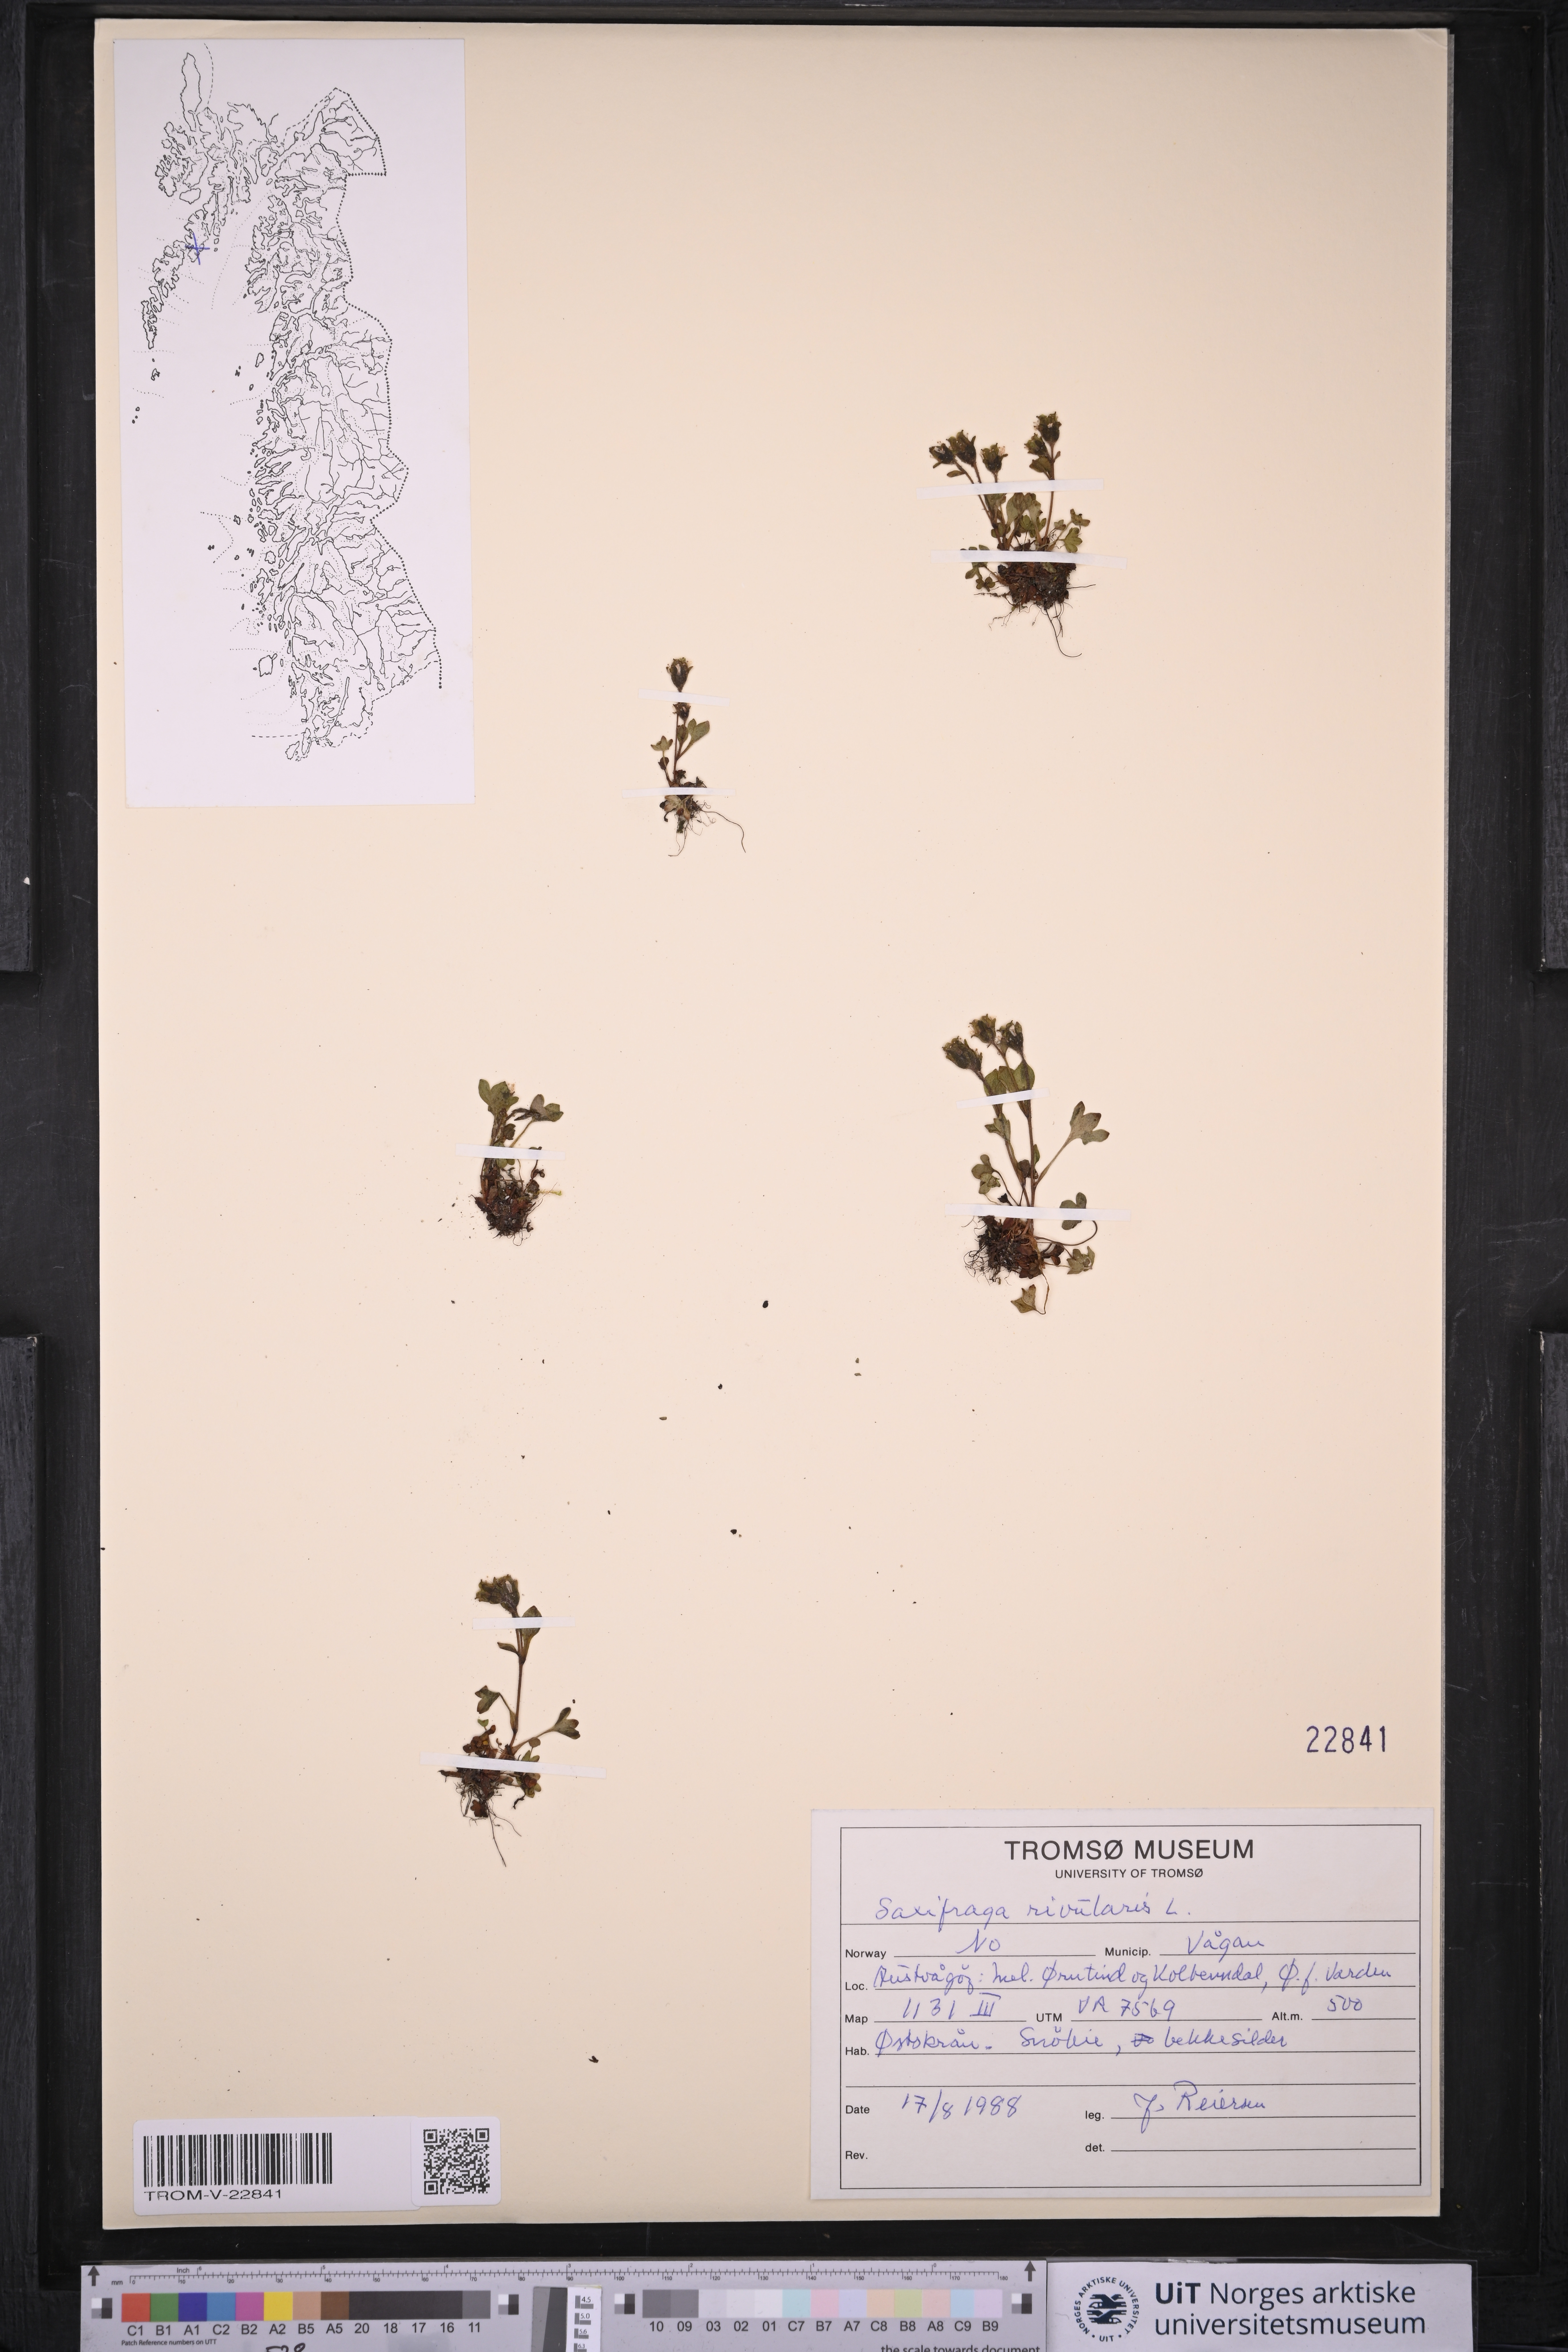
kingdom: Plantae
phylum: Tracheophyta
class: Magnoliopsida
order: Saxifragales
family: Saxifragaceae
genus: Saxifraga
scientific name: Saxifraga rivularis
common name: Highland saxifrage
